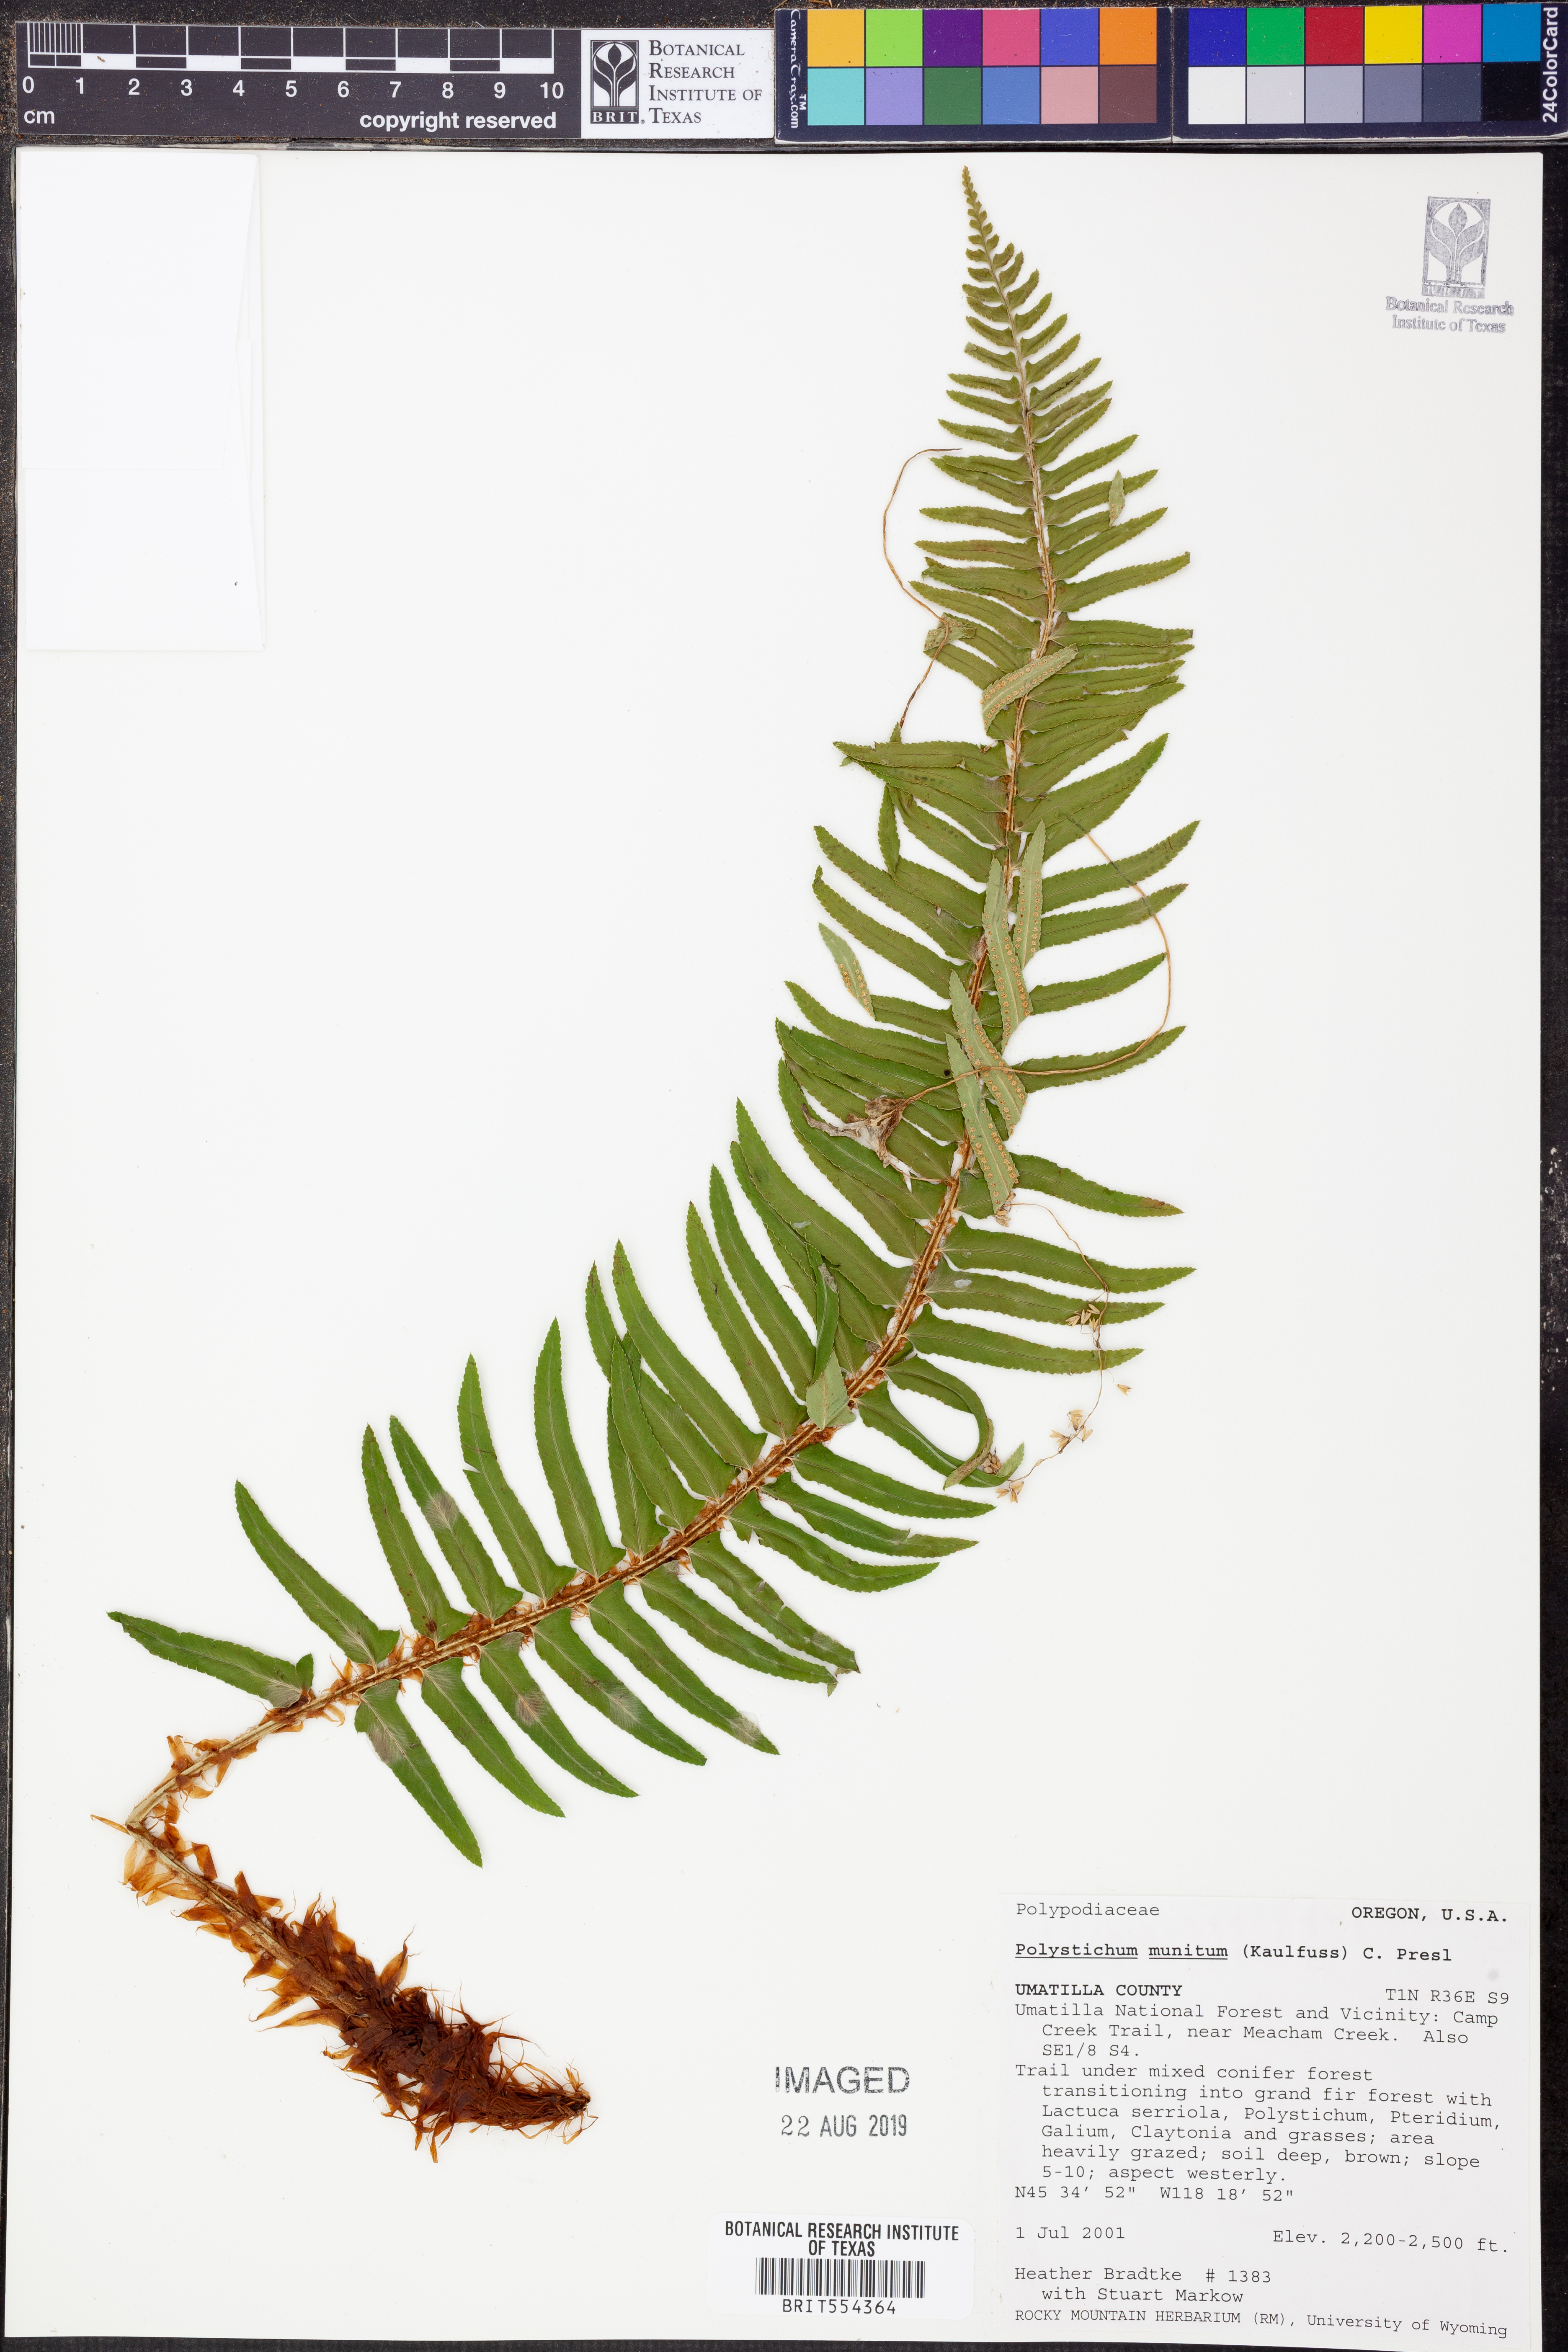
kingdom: Plantae
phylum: Tracheophyta
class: Polypodiopsida
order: Polypodiales
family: Dryopteridaceae
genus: Polystichum
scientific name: Polystichum munitum
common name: Western sword-fern
